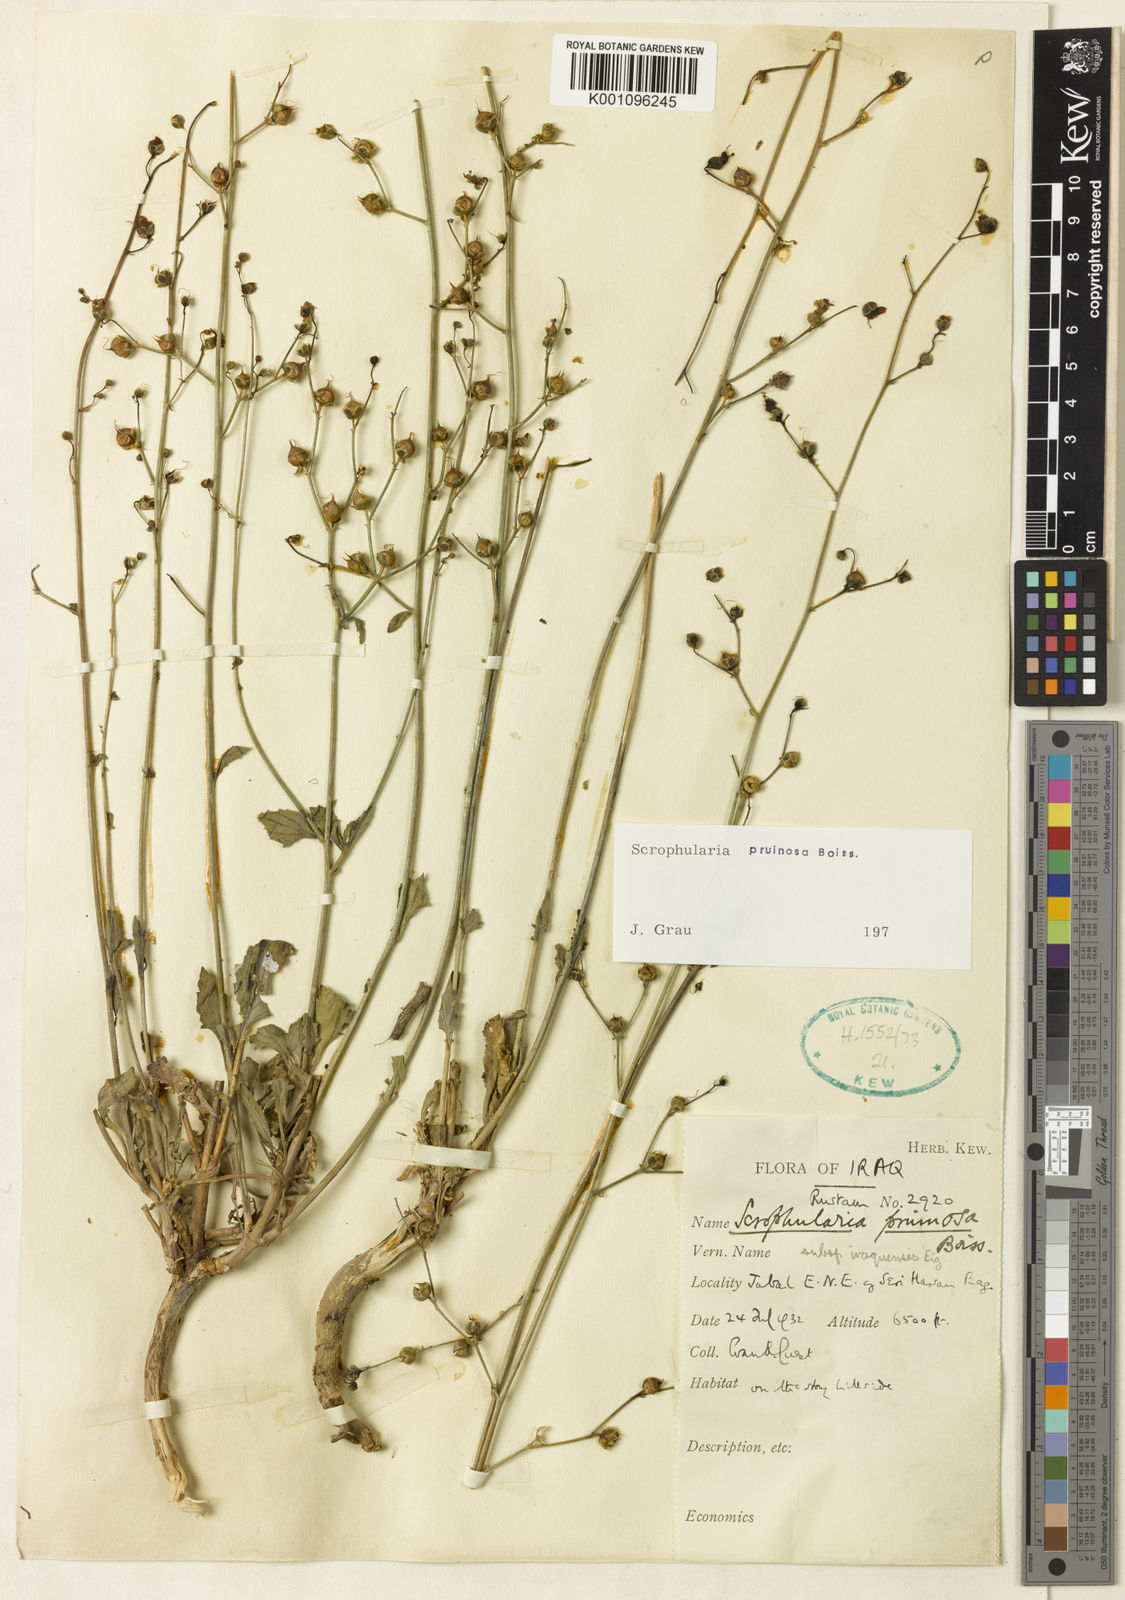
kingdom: Plantae
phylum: Tracheophyta
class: Magnoliopsida
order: Lamiales
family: Scrophulariaceae
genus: Scrophularia
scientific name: Scrophularia pruinosa
